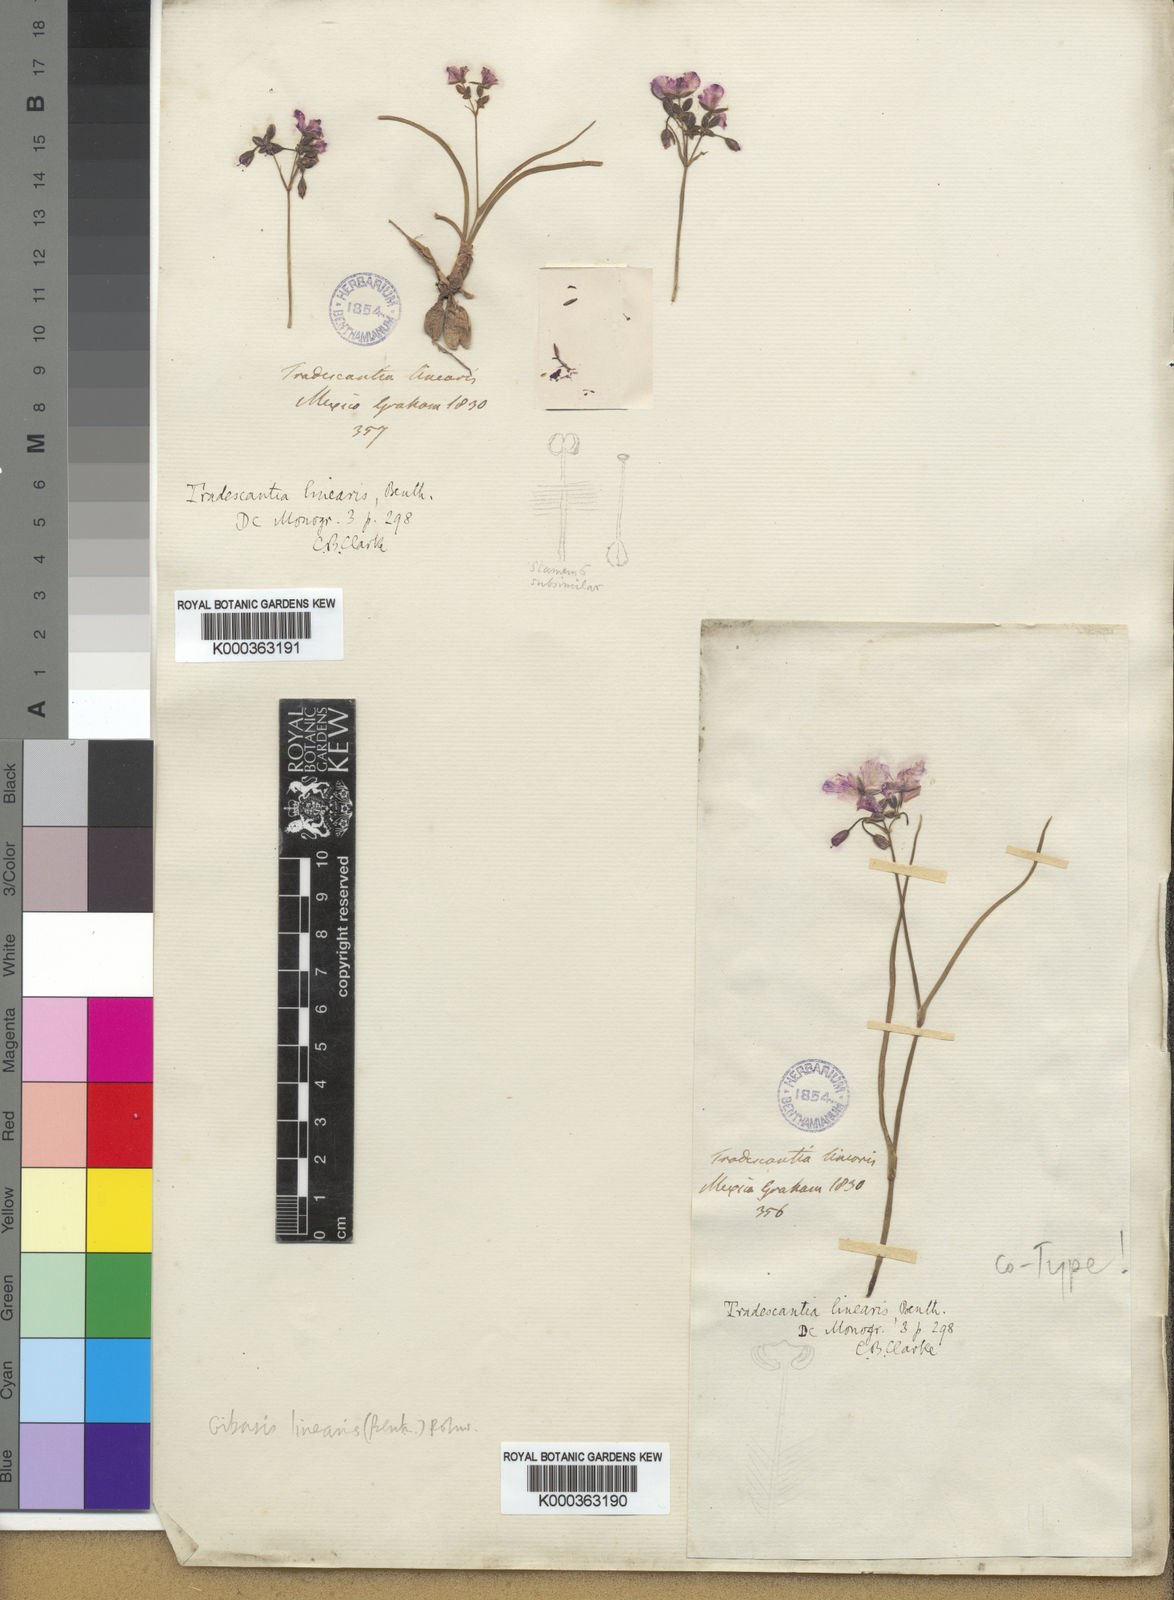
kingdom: Plantae
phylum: Tracheophyta
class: Liliopsida
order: Commelinales
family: Commelinaceae
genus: Gibasis
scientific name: Gibasis linearis
